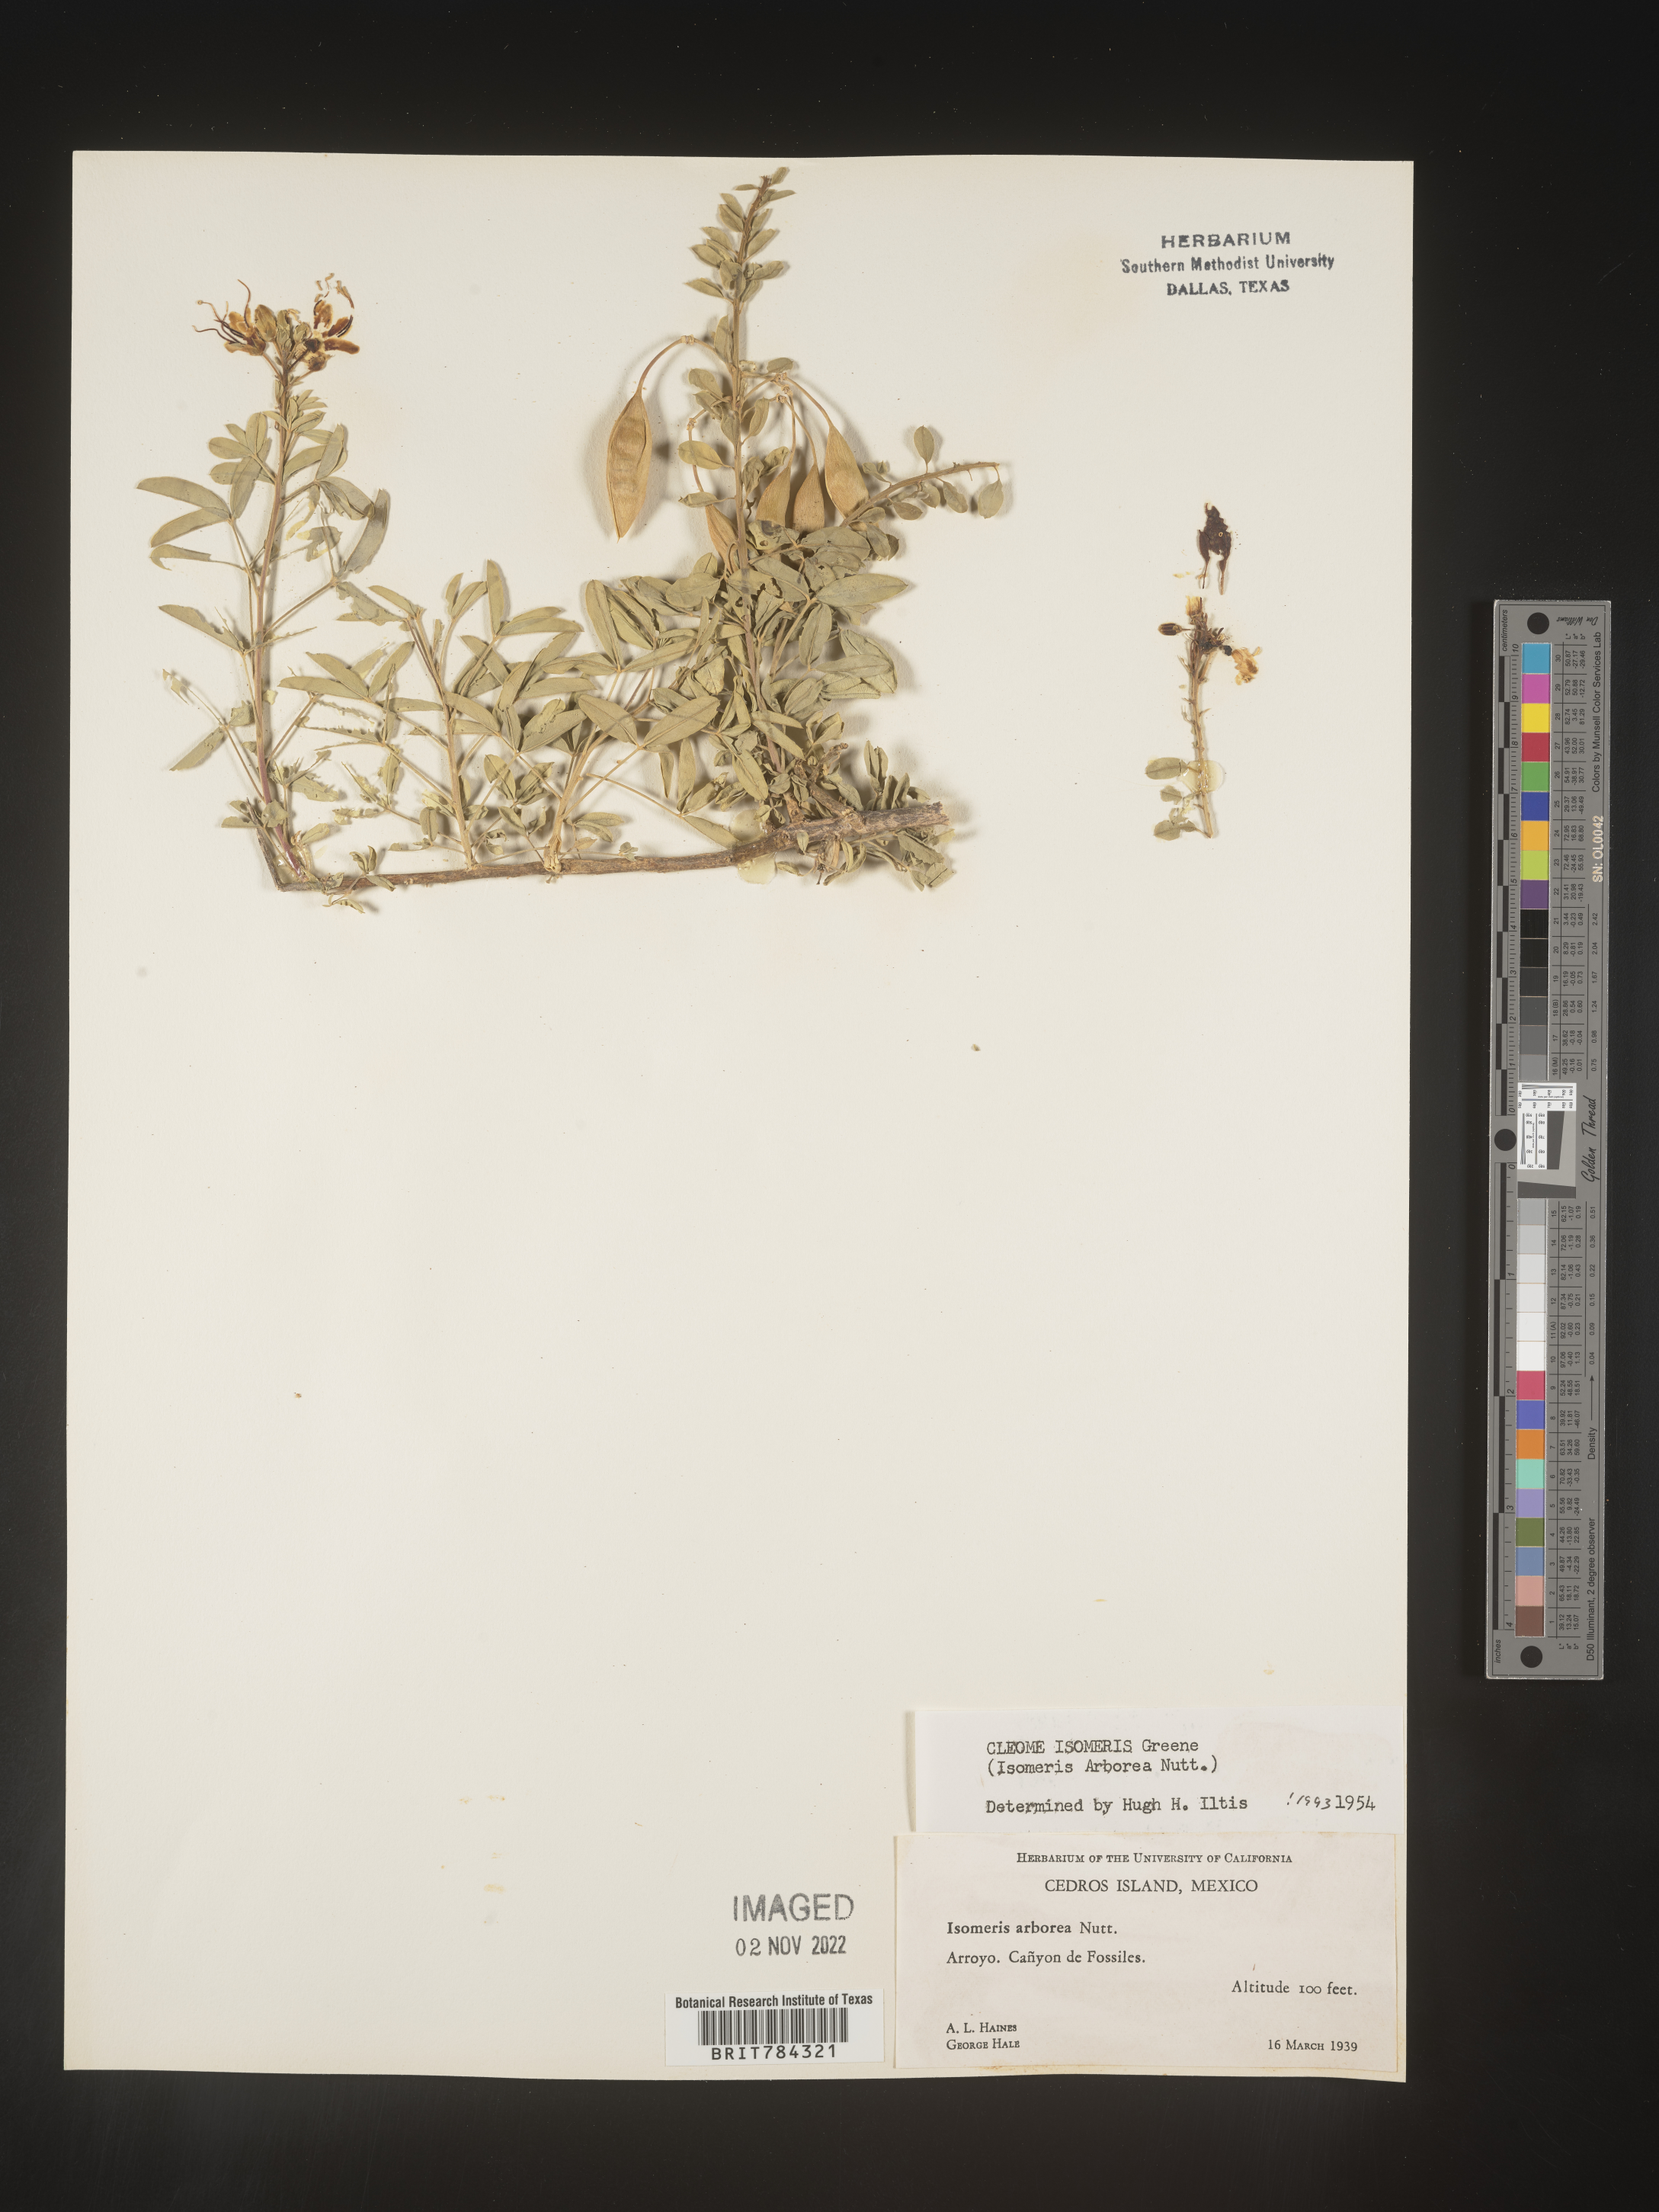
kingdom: Plantae
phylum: Tracheophyta
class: Magnoliopsida
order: Brassicales
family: Cleomaceae
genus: Cleome
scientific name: Cleome
